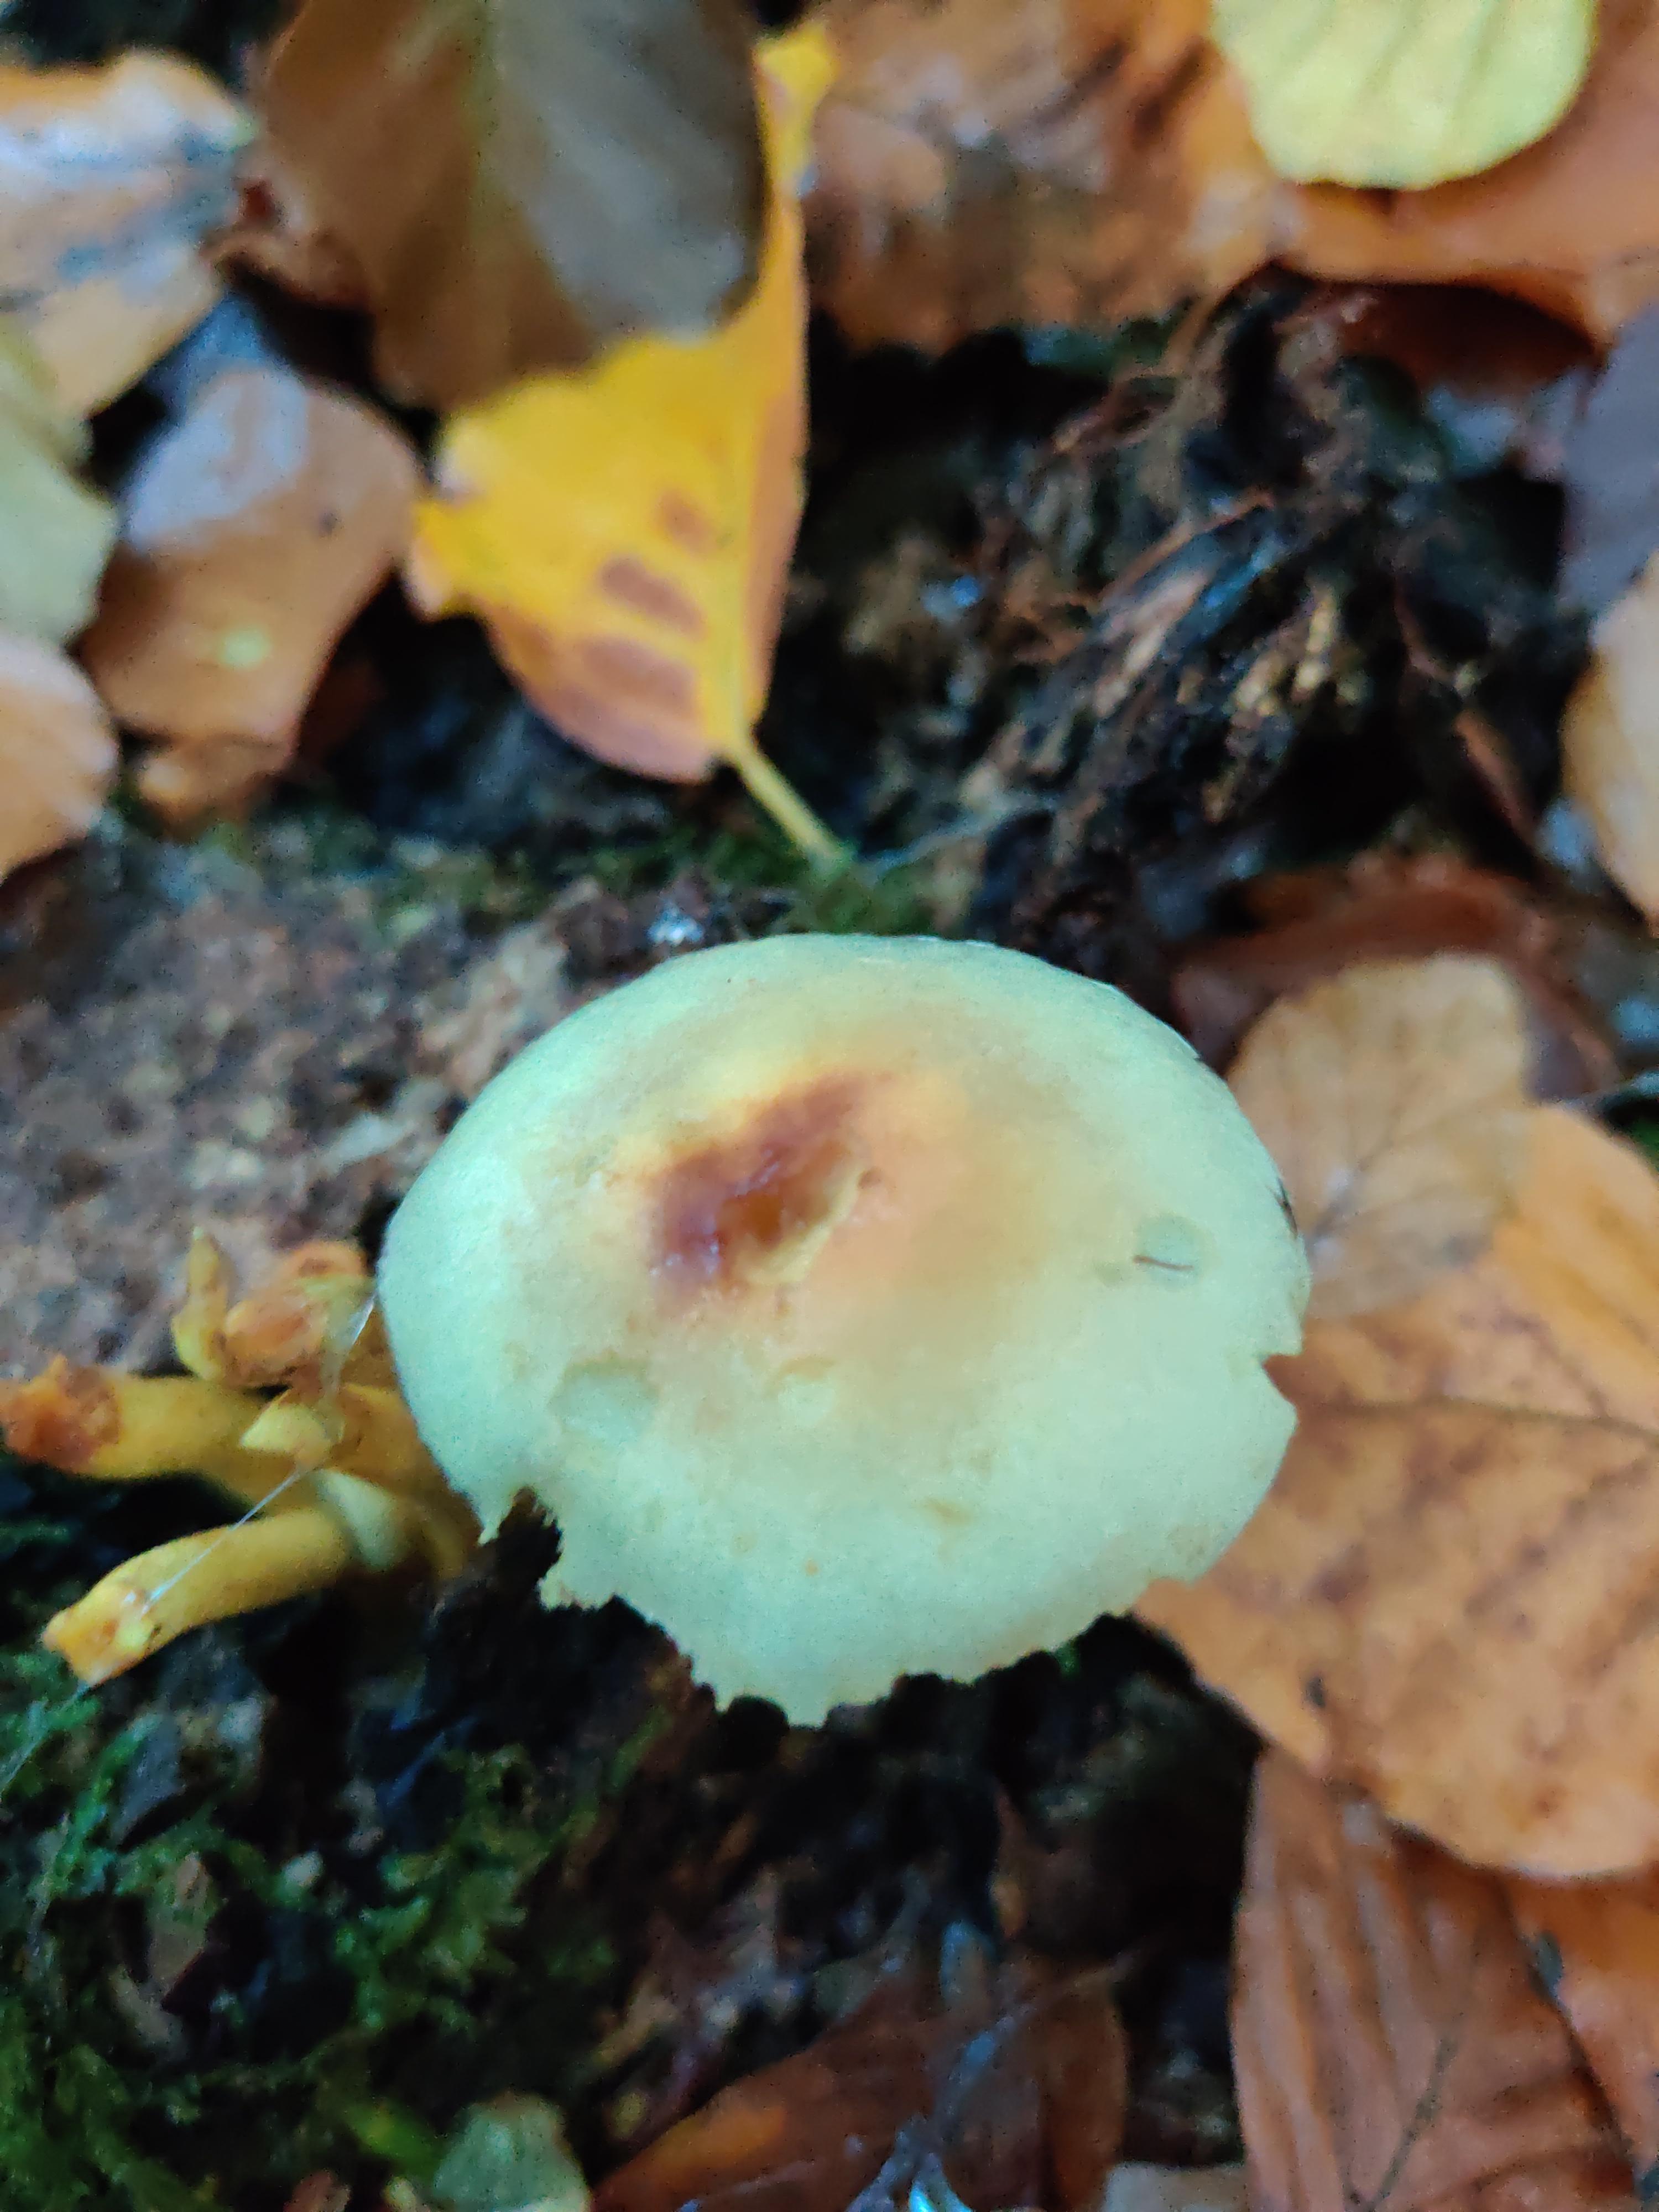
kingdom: Fungi
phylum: Basidiomycota
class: Agaricomycetes
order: Agaricales
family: Strophariaceae
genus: Hypholoma
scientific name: Hypholoma fasciculare
